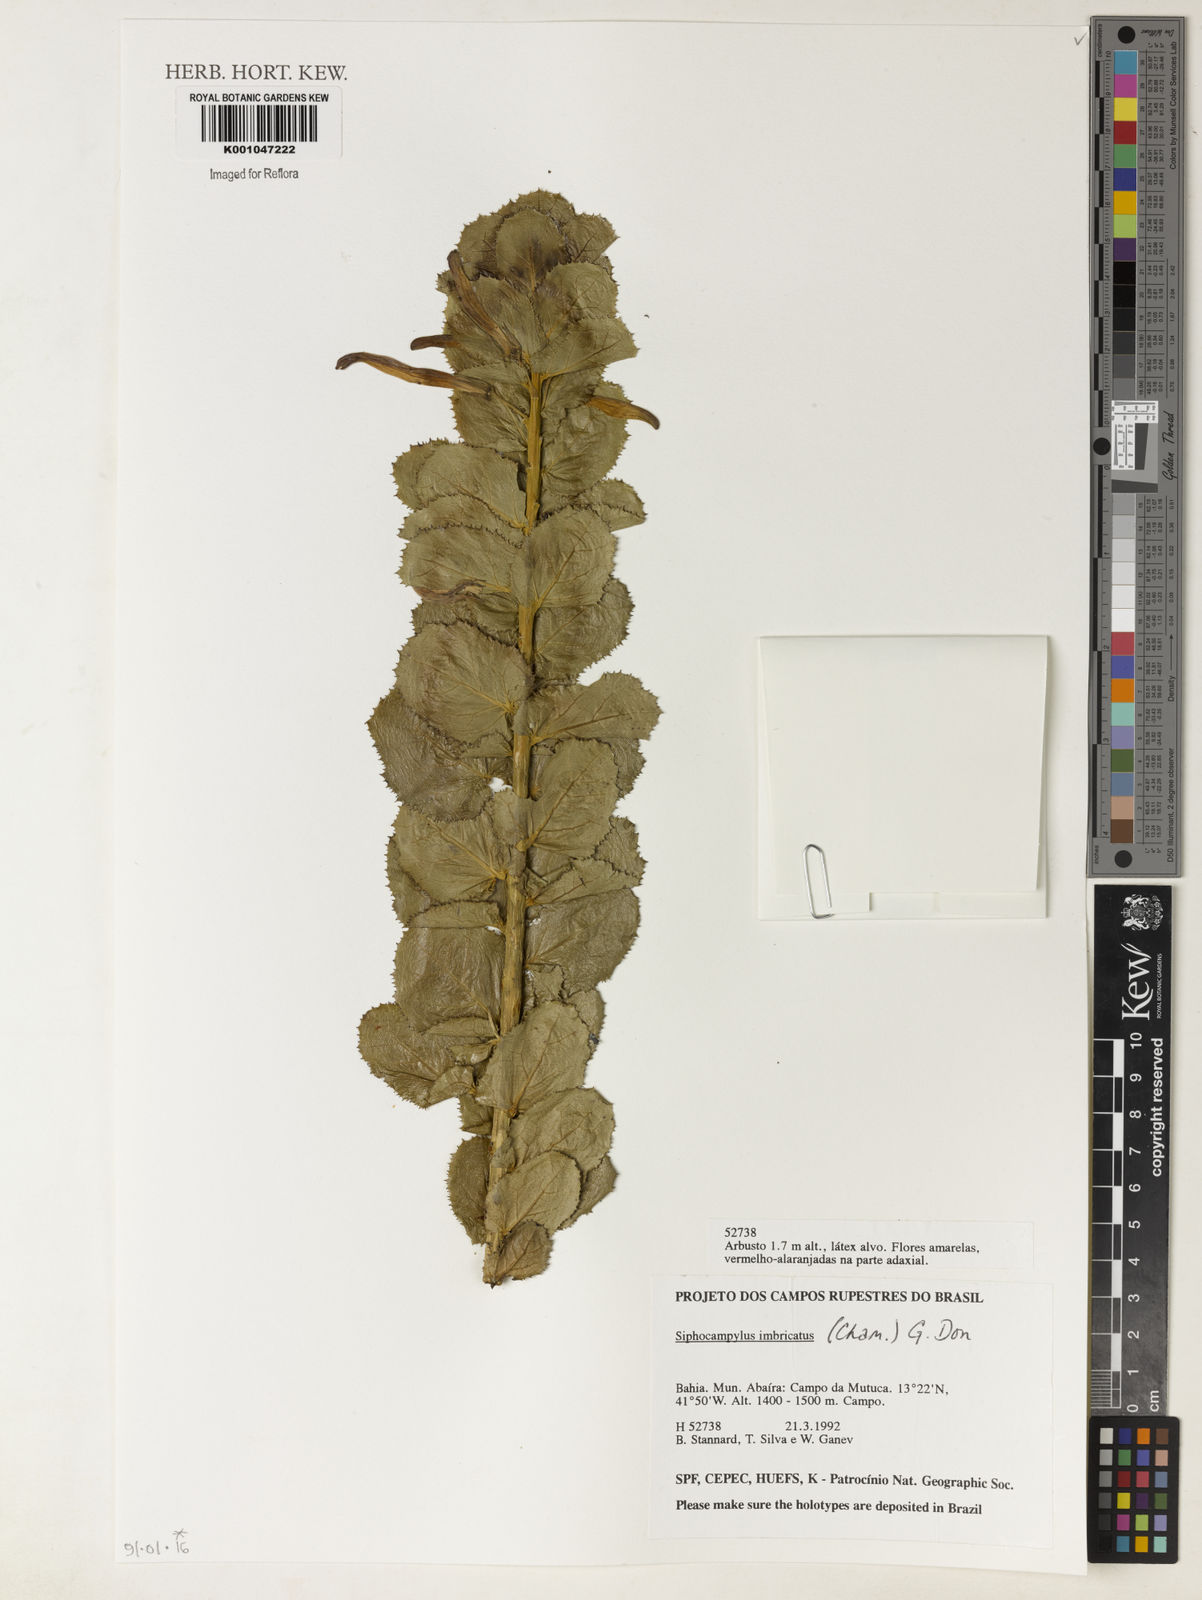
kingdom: Plantae
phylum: Tracheophyta
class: Magnoliopsida
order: Asterales
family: Campanulaceae
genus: Siphocampylus
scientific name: Siphocampylus imbricatus
